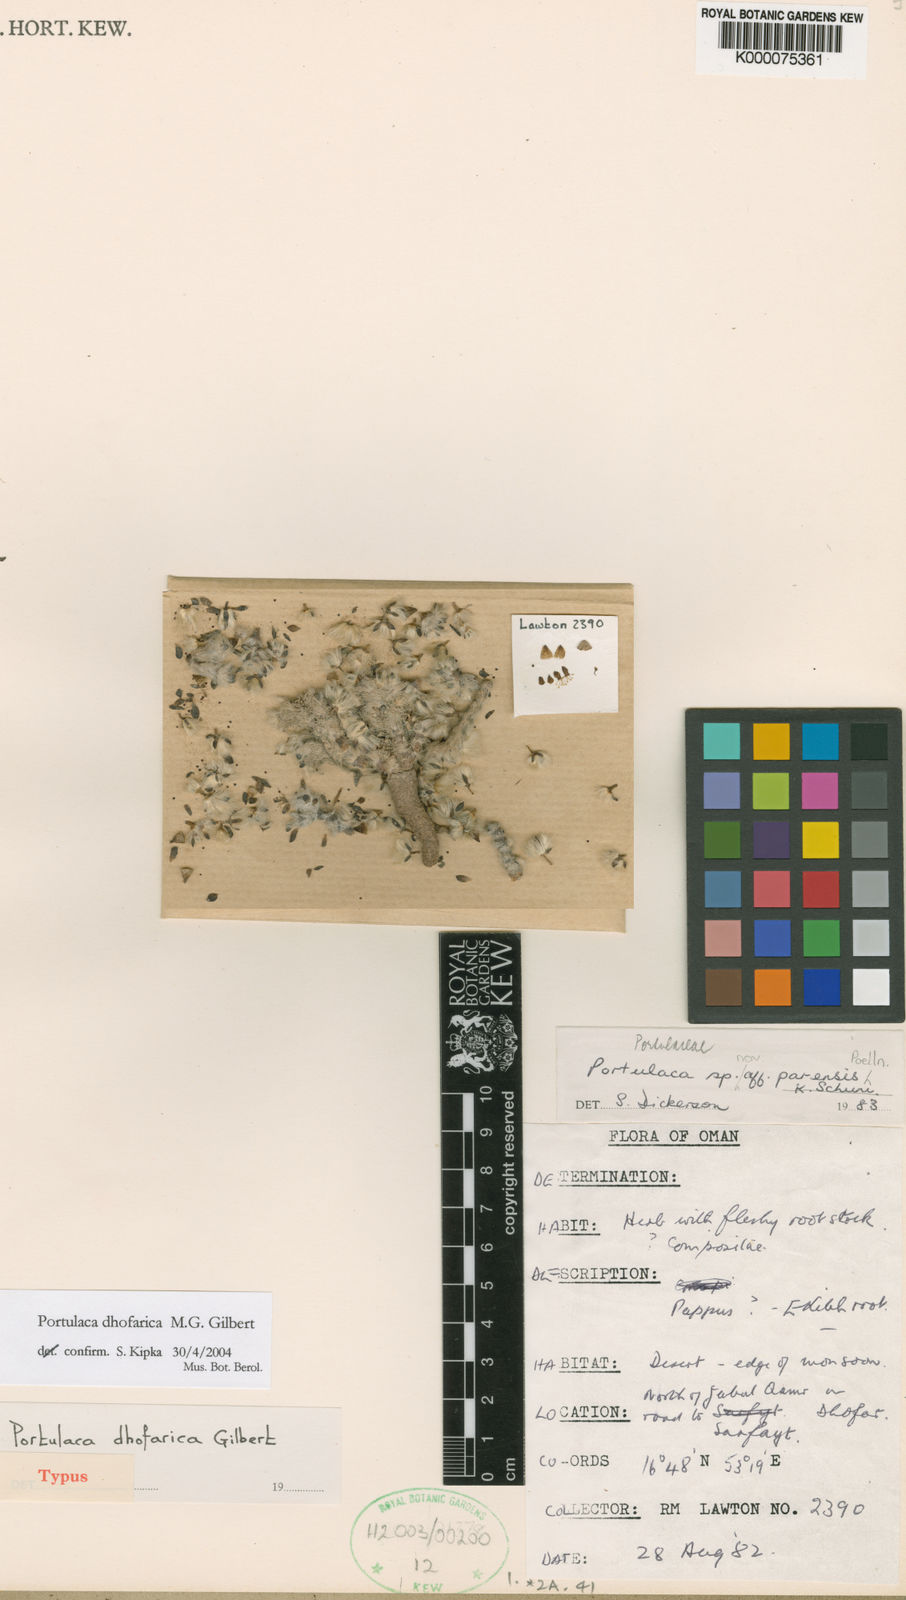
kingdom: Plantae
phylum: Tracheophyta
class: Magnoliopsida
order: Caryophyllales
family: Portulacaceae
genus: Portulaca
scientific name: Portulaca dhofarica
